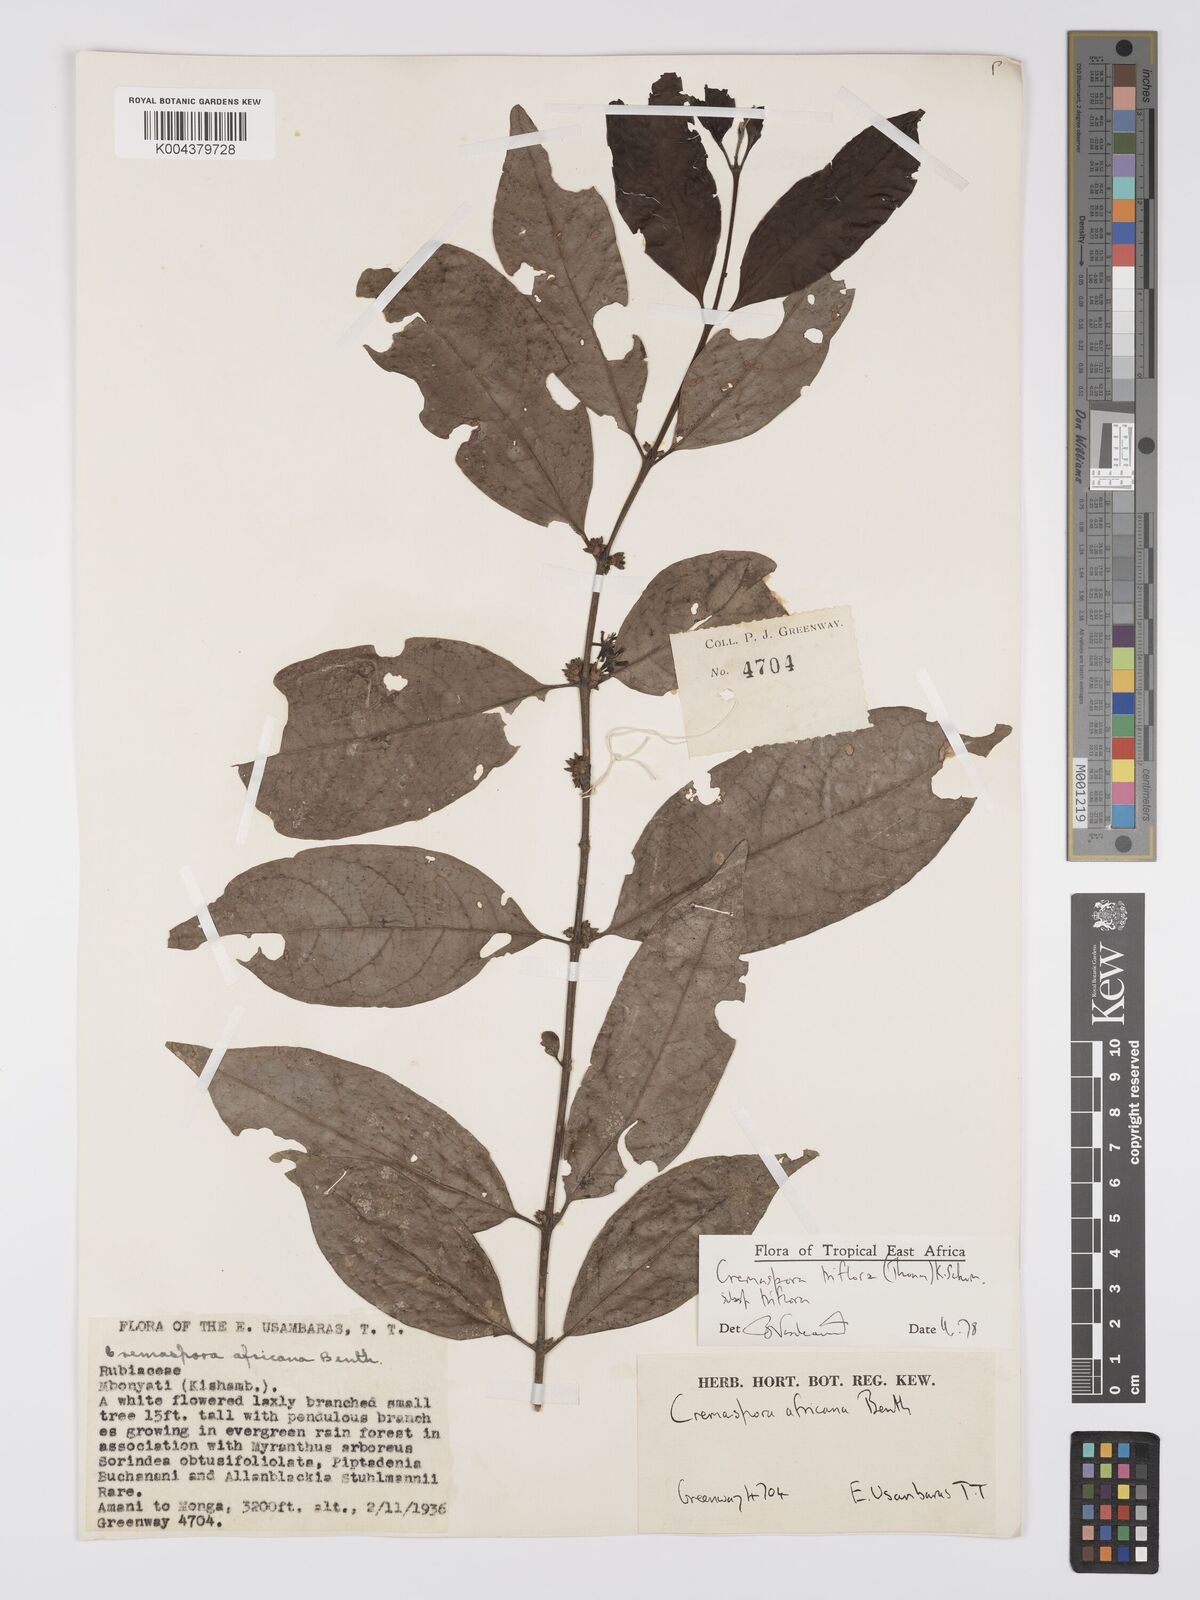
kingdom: Plantae
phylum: Tracheophyta
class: Magnoliopsida
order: Gentianales
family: Rubiaceae
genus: Cremaspora
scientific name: Cremaspora triflora
